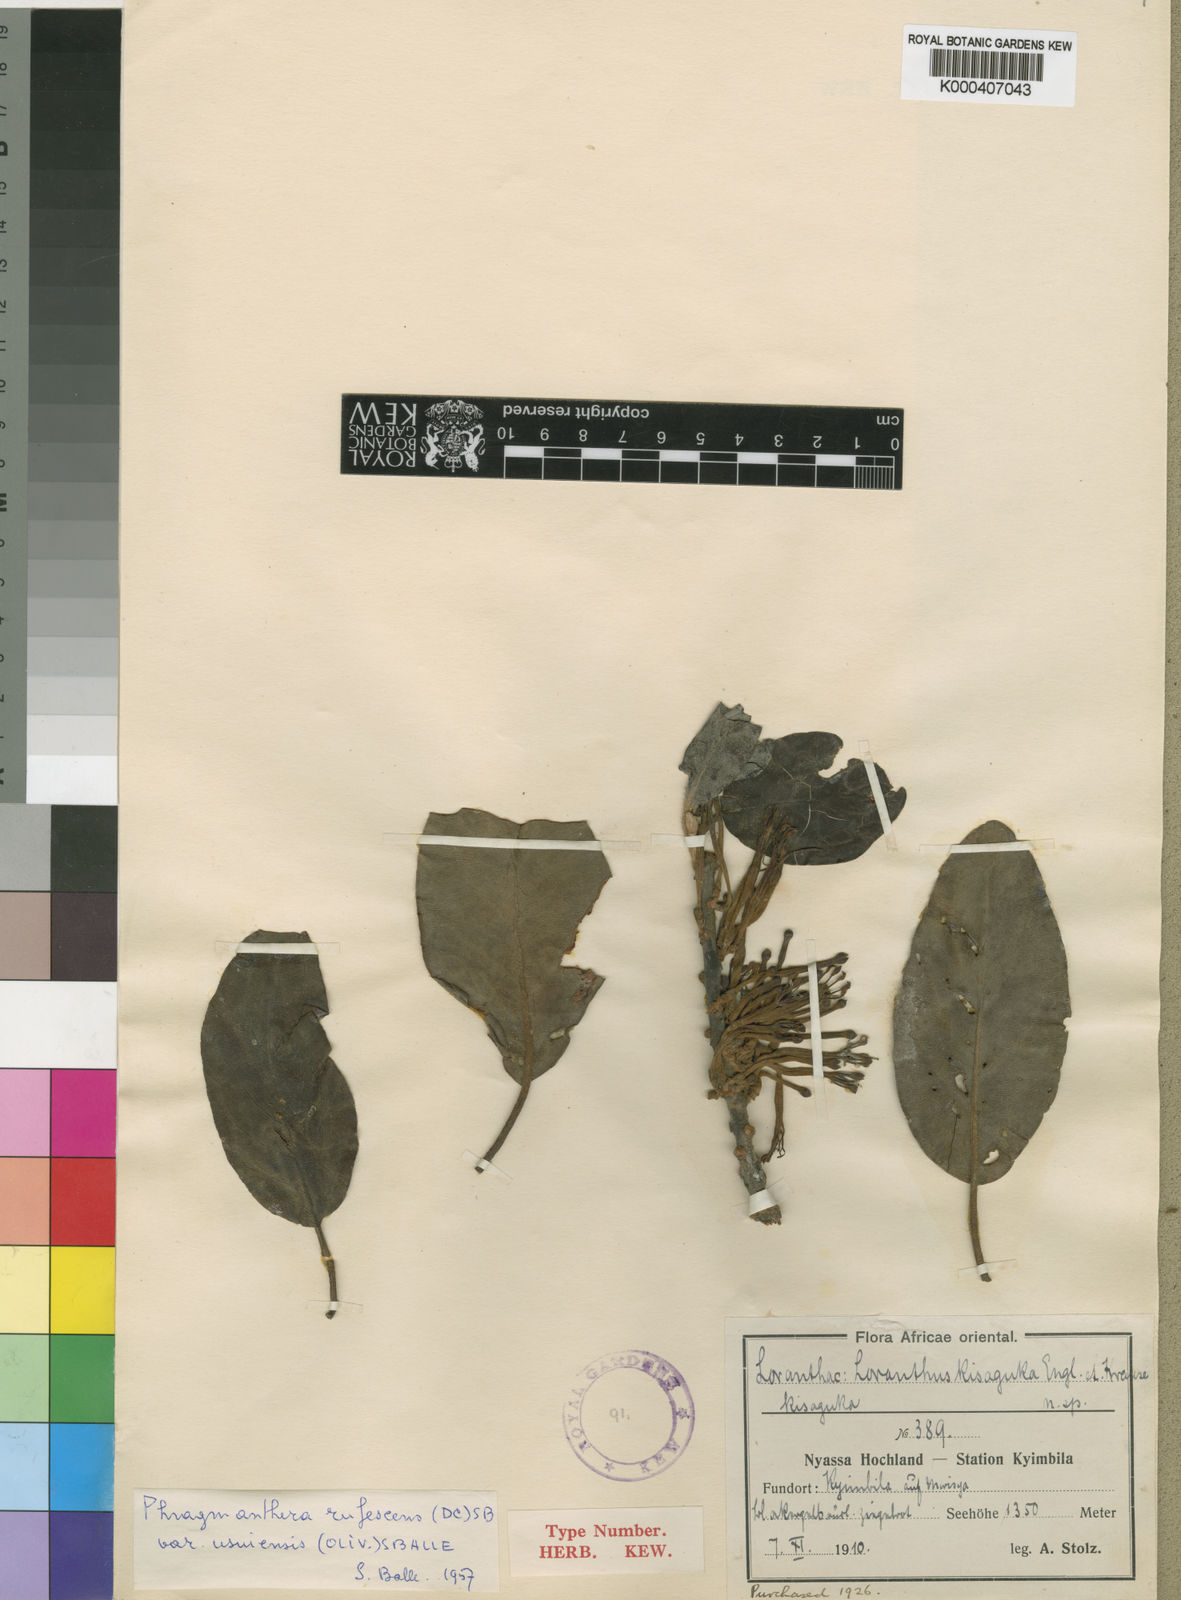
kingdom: Plantae
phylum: Tracheophyta
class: Magnoliopsida
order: Santalales
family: Loranthaceae
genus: Phragmanthera
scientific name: Phragmanthera usuiensis
